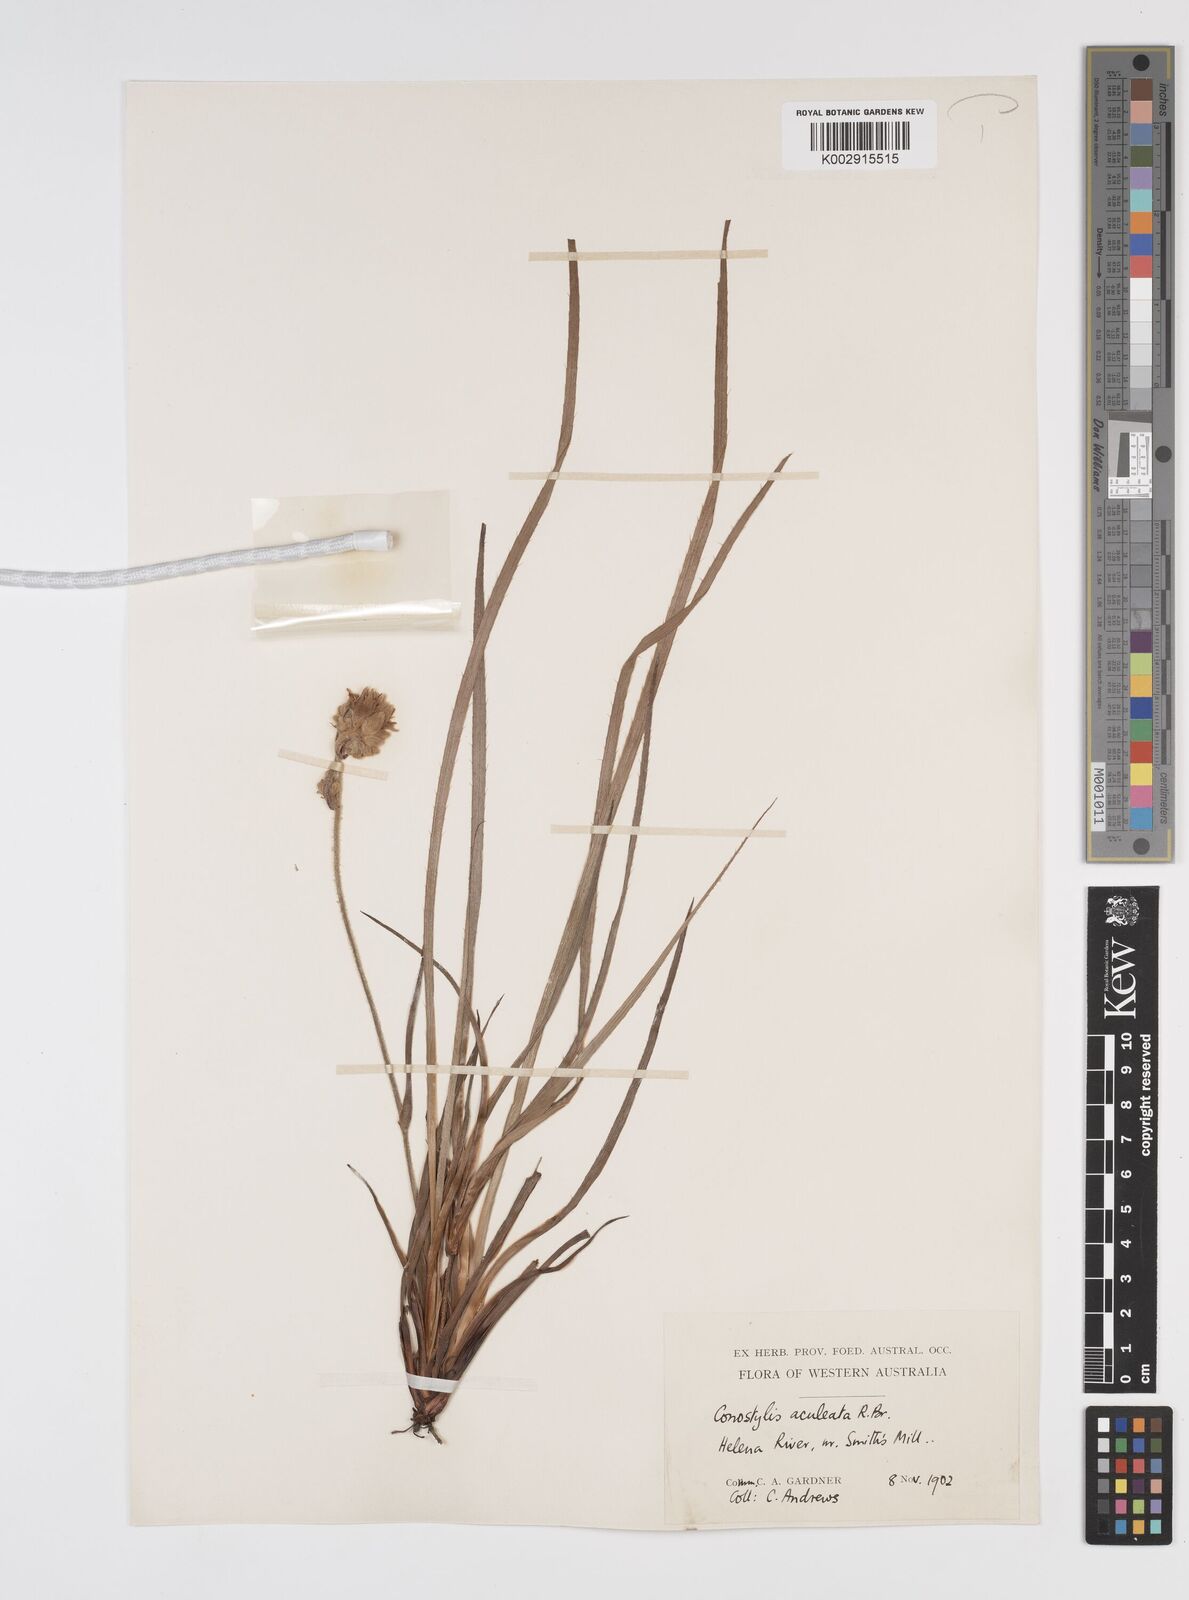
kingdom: Plantae
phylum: Tracheophyta
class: Liliopsida
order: Commelinales
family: Haemodoraceae
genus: Conostylis
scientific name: Conostylis aculeata
